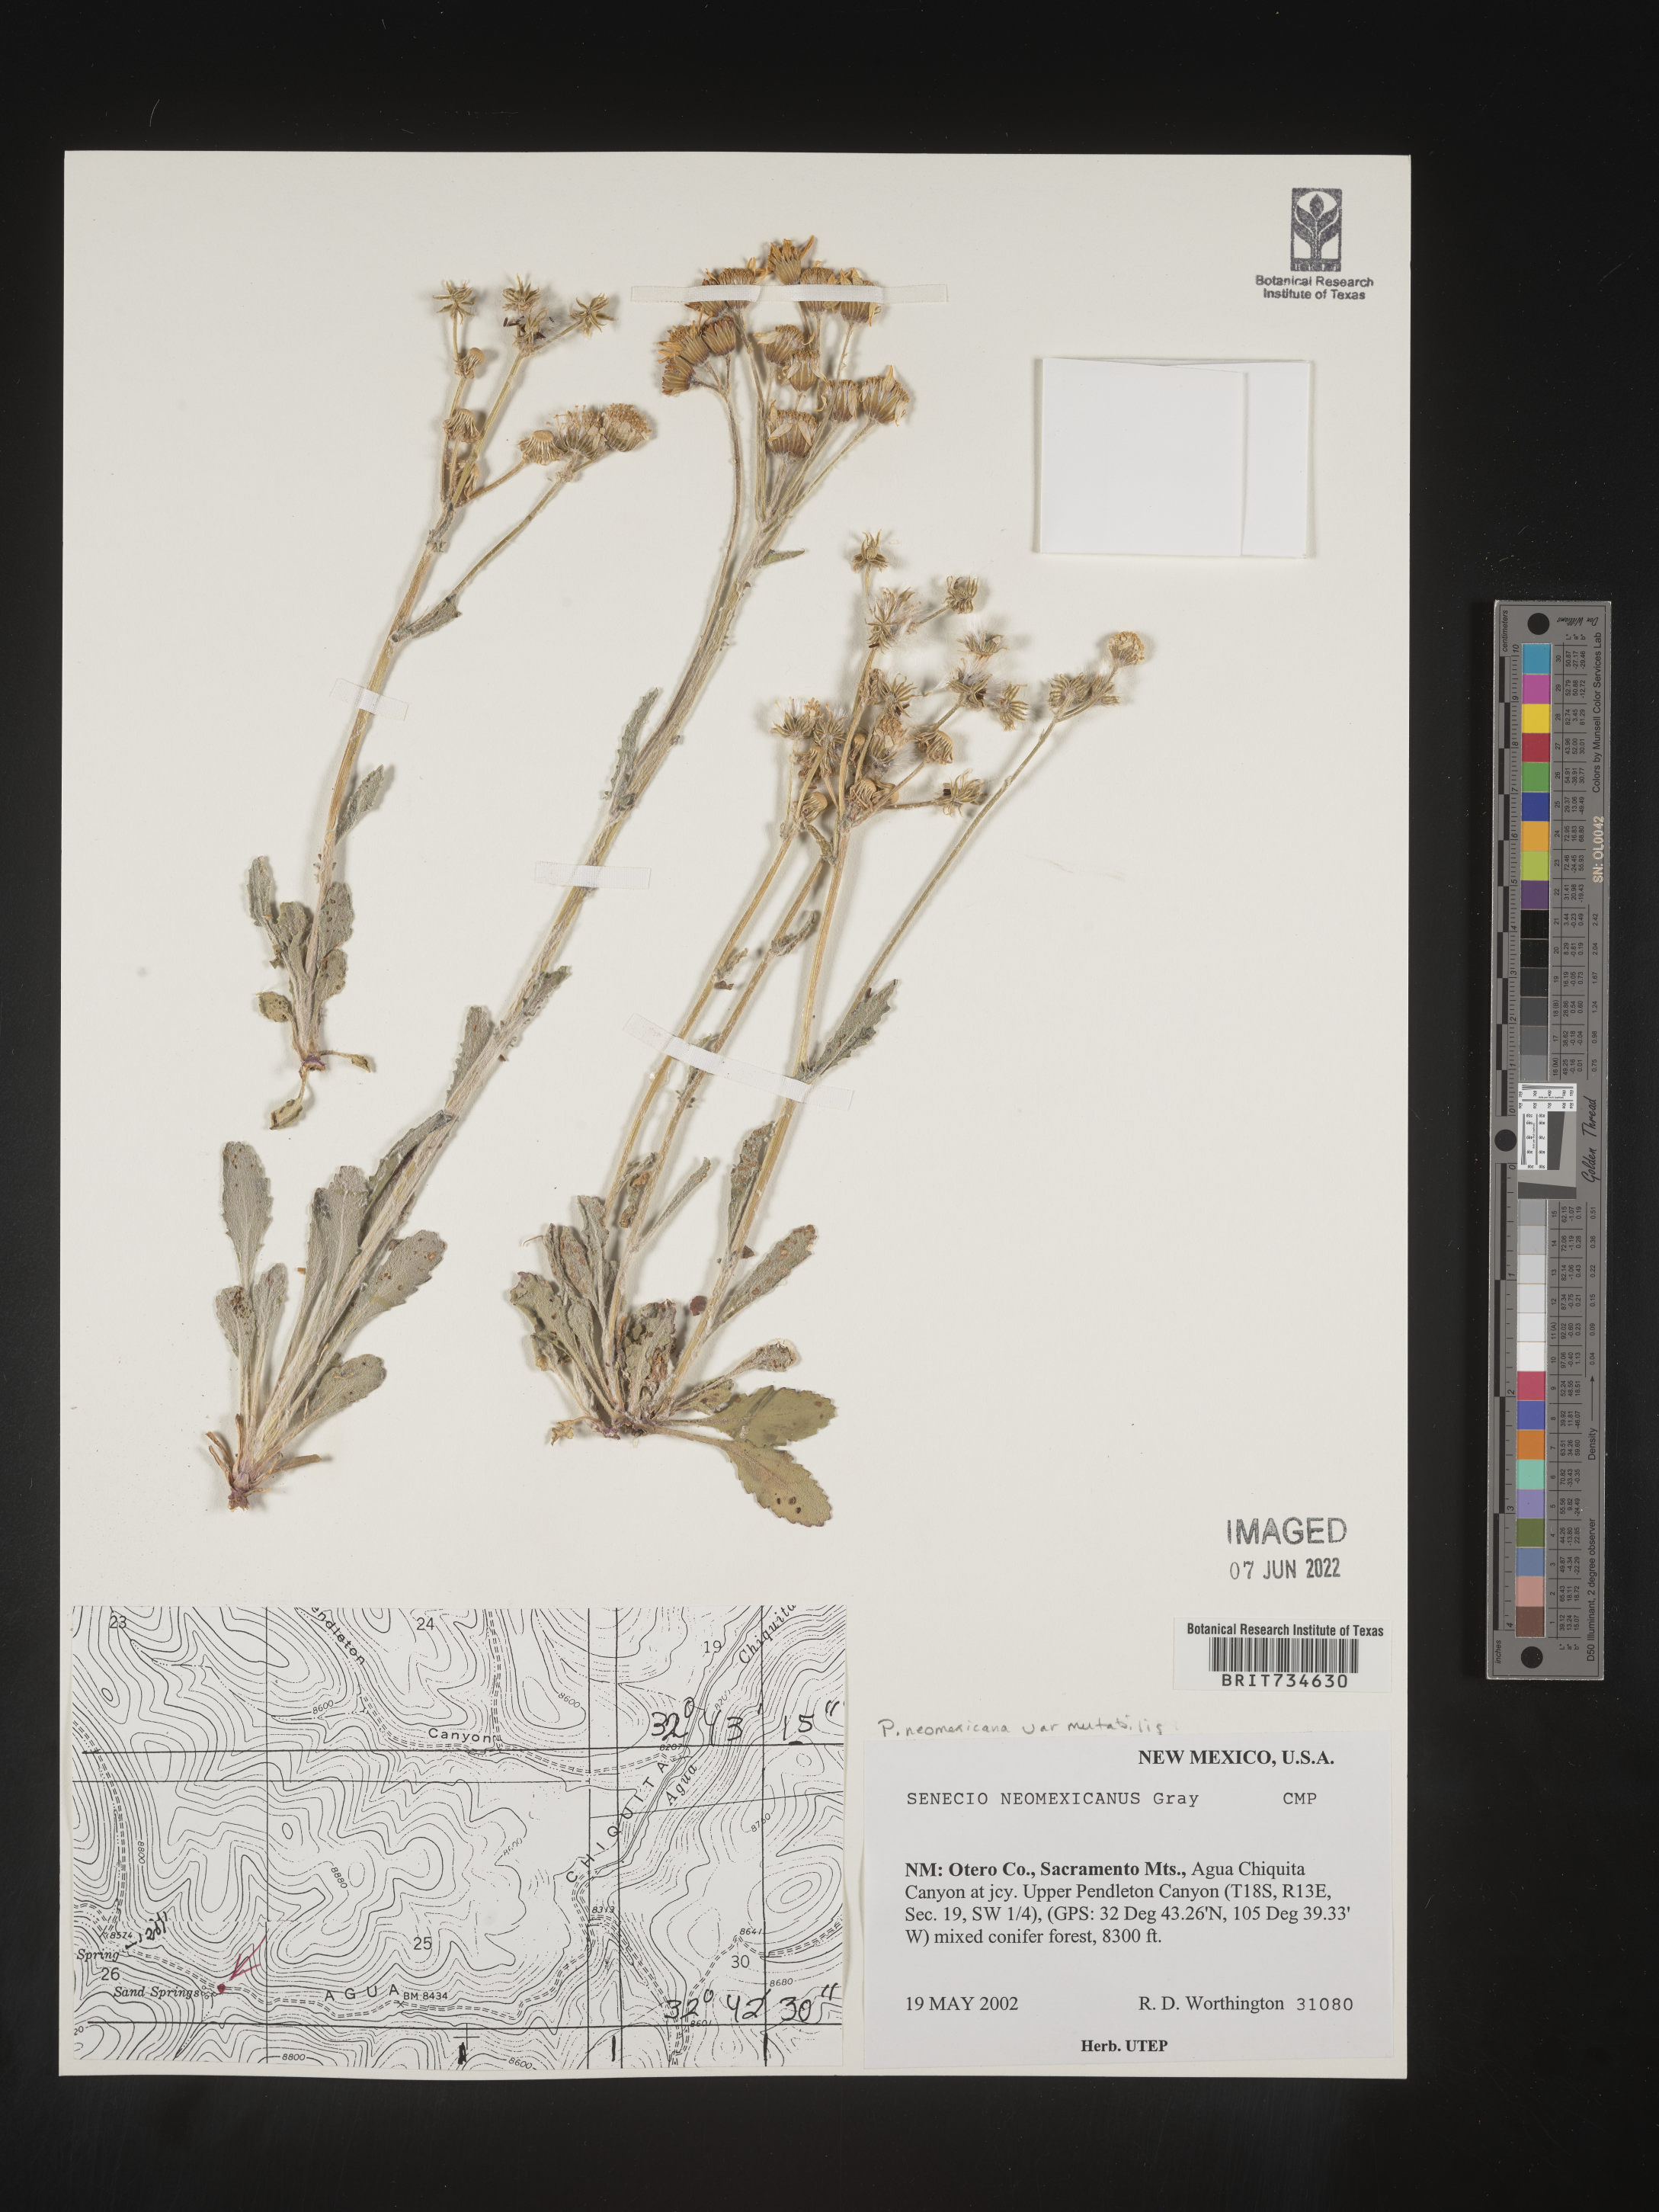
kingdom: Plantae
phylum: Tracheophyta
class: Magnoliopsida
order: Asterales
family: Asteraceae
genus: Packera
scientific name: Packera neomexicana
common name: New mexico butterweed
